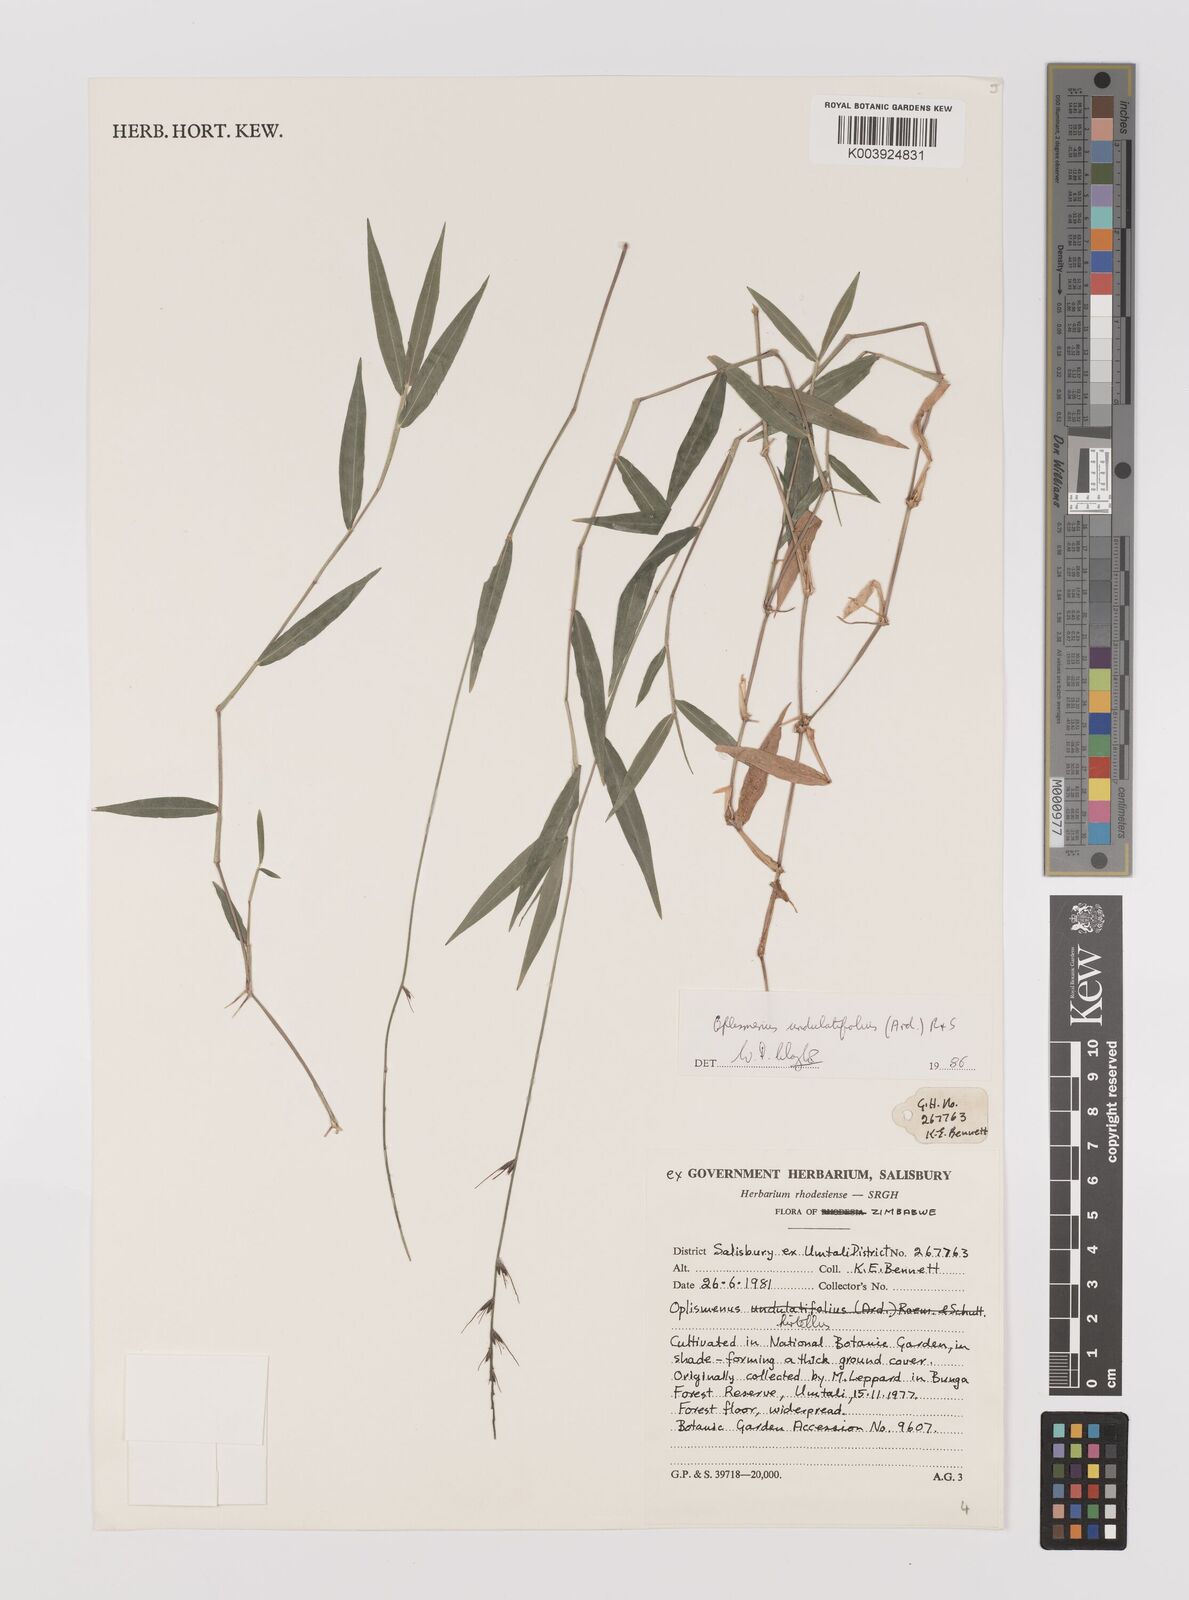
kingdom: Plantae
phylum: Tracheophyta
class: Liliopsida
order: Poales
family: Poaceae
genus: Oplismenus
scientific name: Oplismenus undulatifolius
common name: Wavyleaf basketgrass
